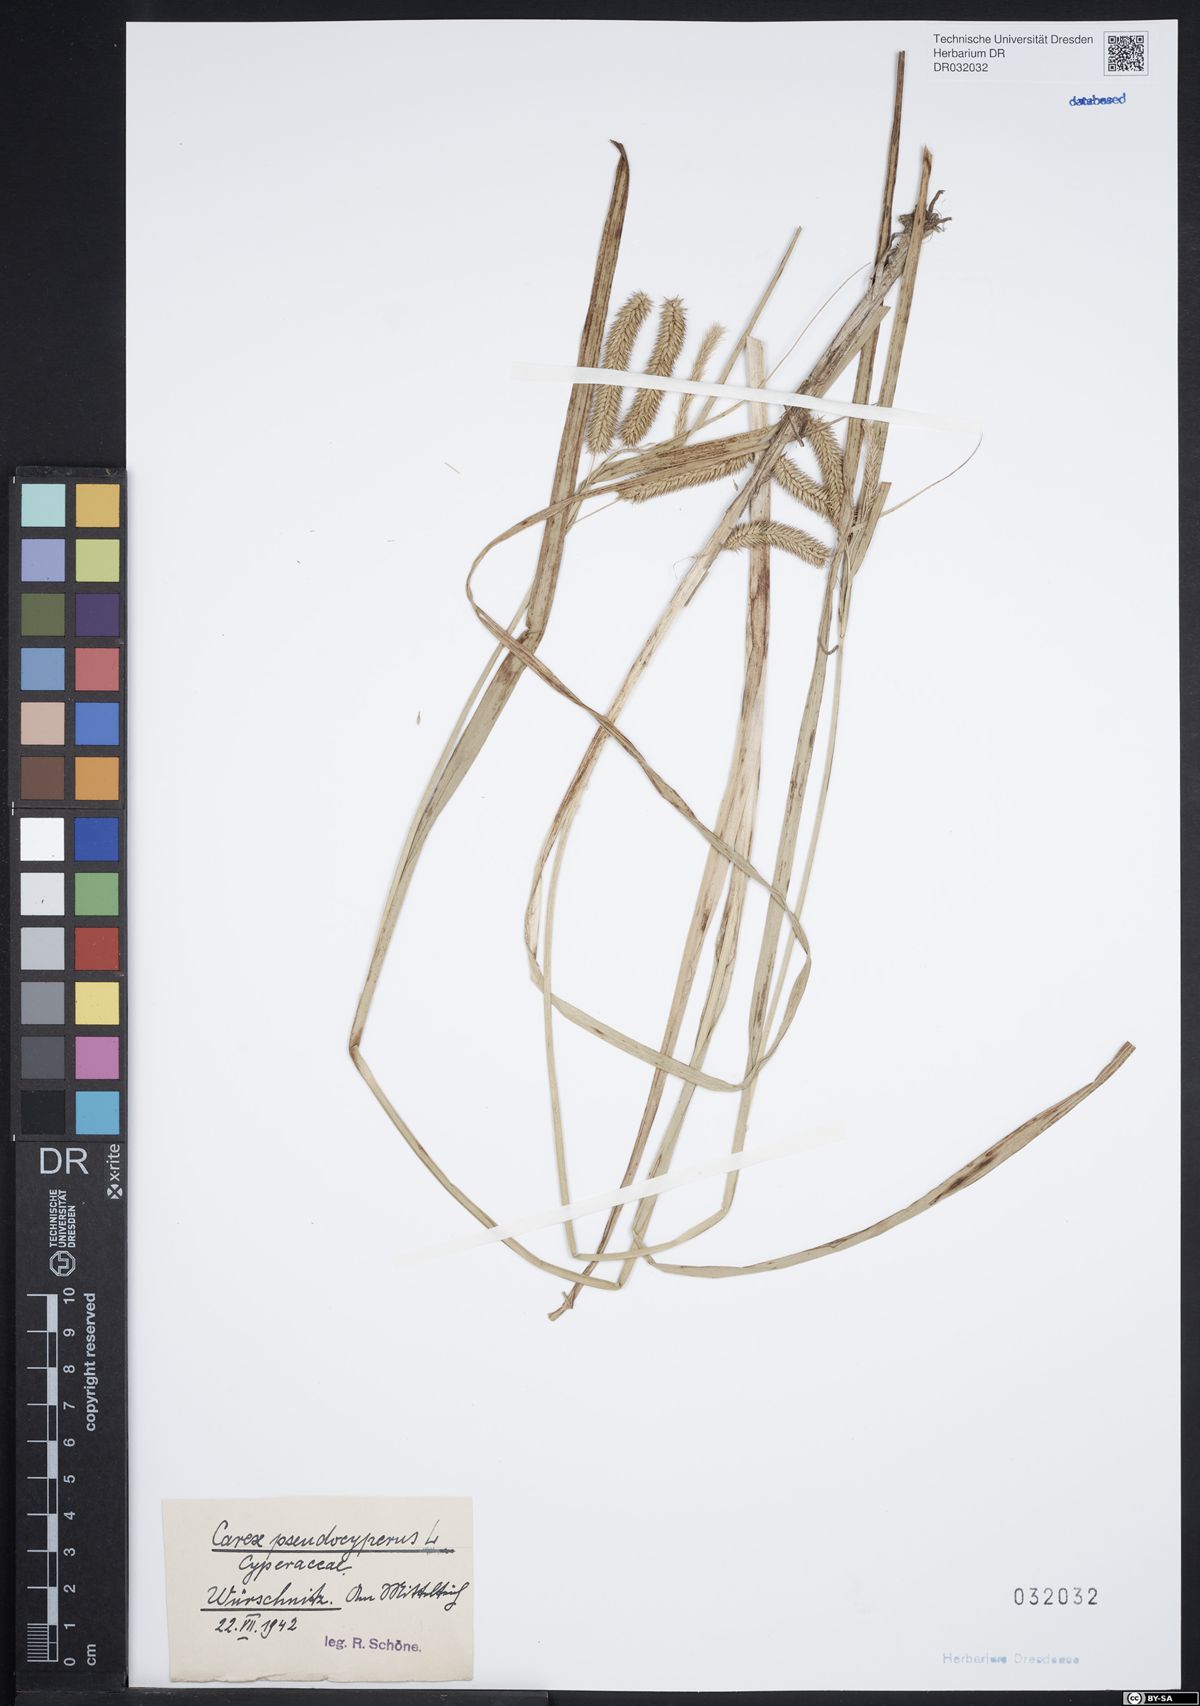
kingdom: Plantae
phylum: Tracheophyta
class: Liliopsida
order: Poales
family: Cyperaceae
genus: Carex
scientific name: Carex pseudocyperus
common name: Cyperus sedge
